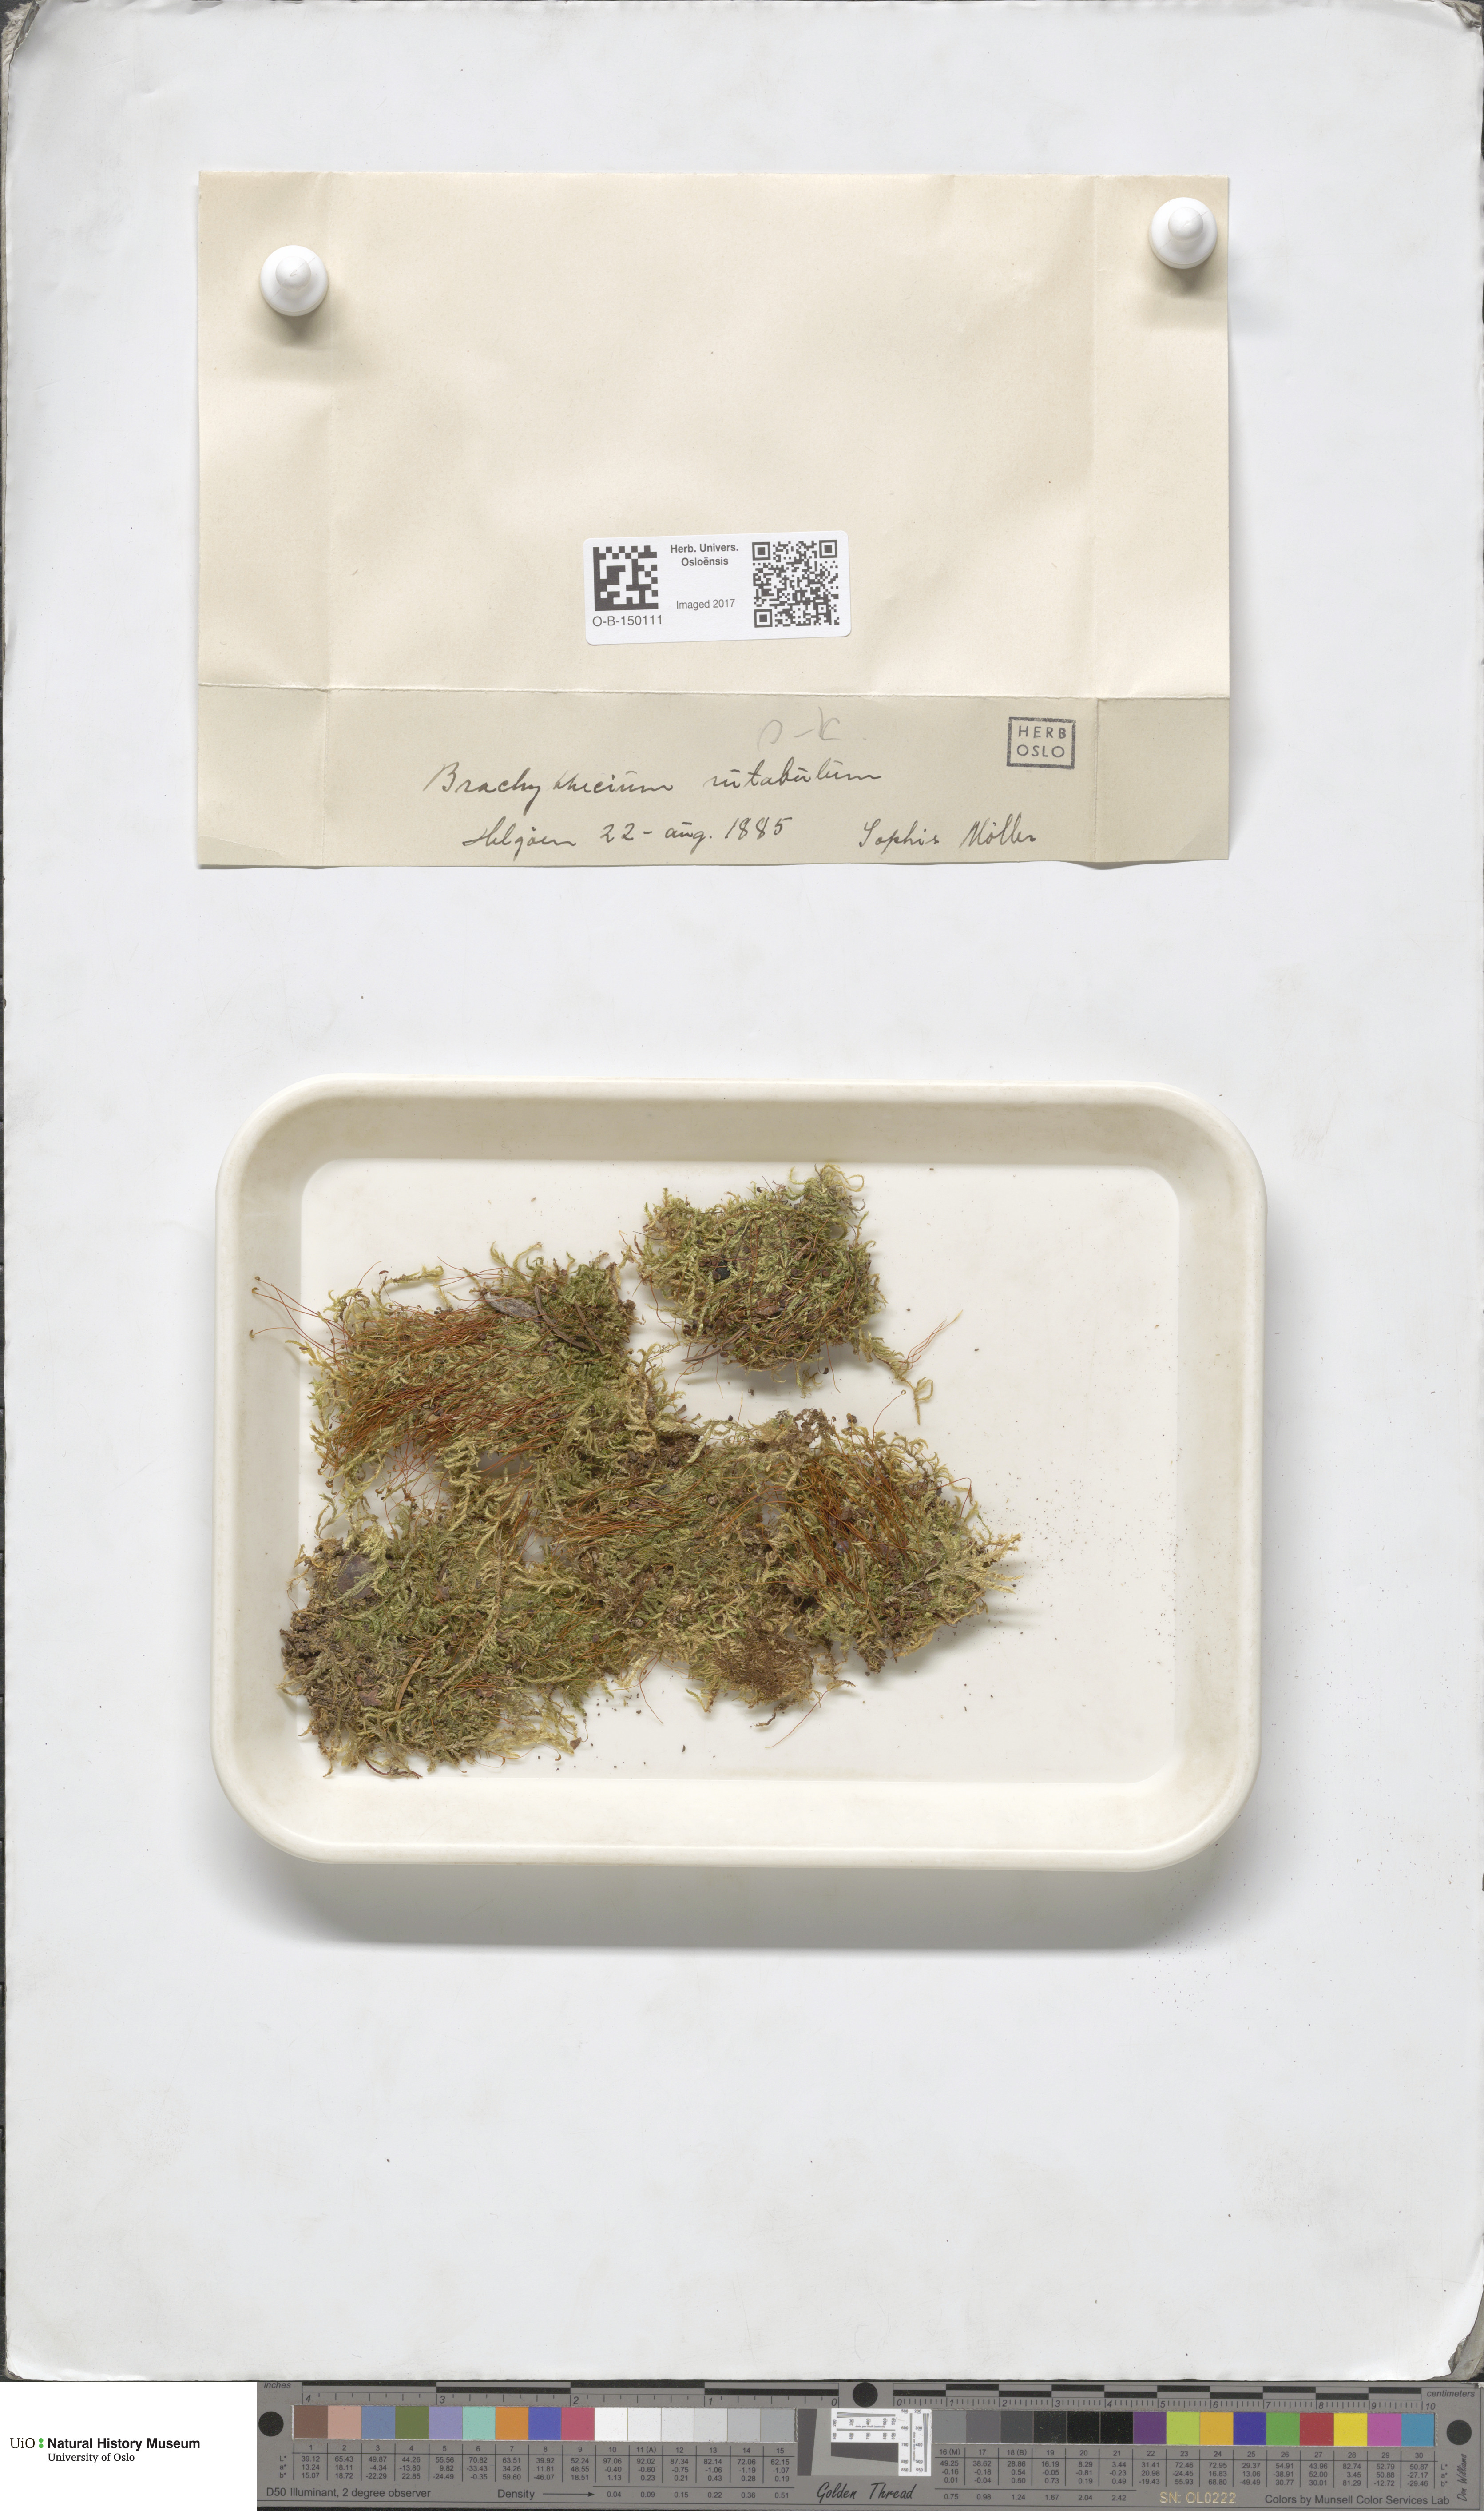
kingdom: Plantae
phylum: Bryophyta
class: Bryopsida
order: Hypnales
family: Brachytheciaceae
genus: Brachythecium
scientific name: Brachythecium rutabulum
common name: Rough-stalked feather-moss
